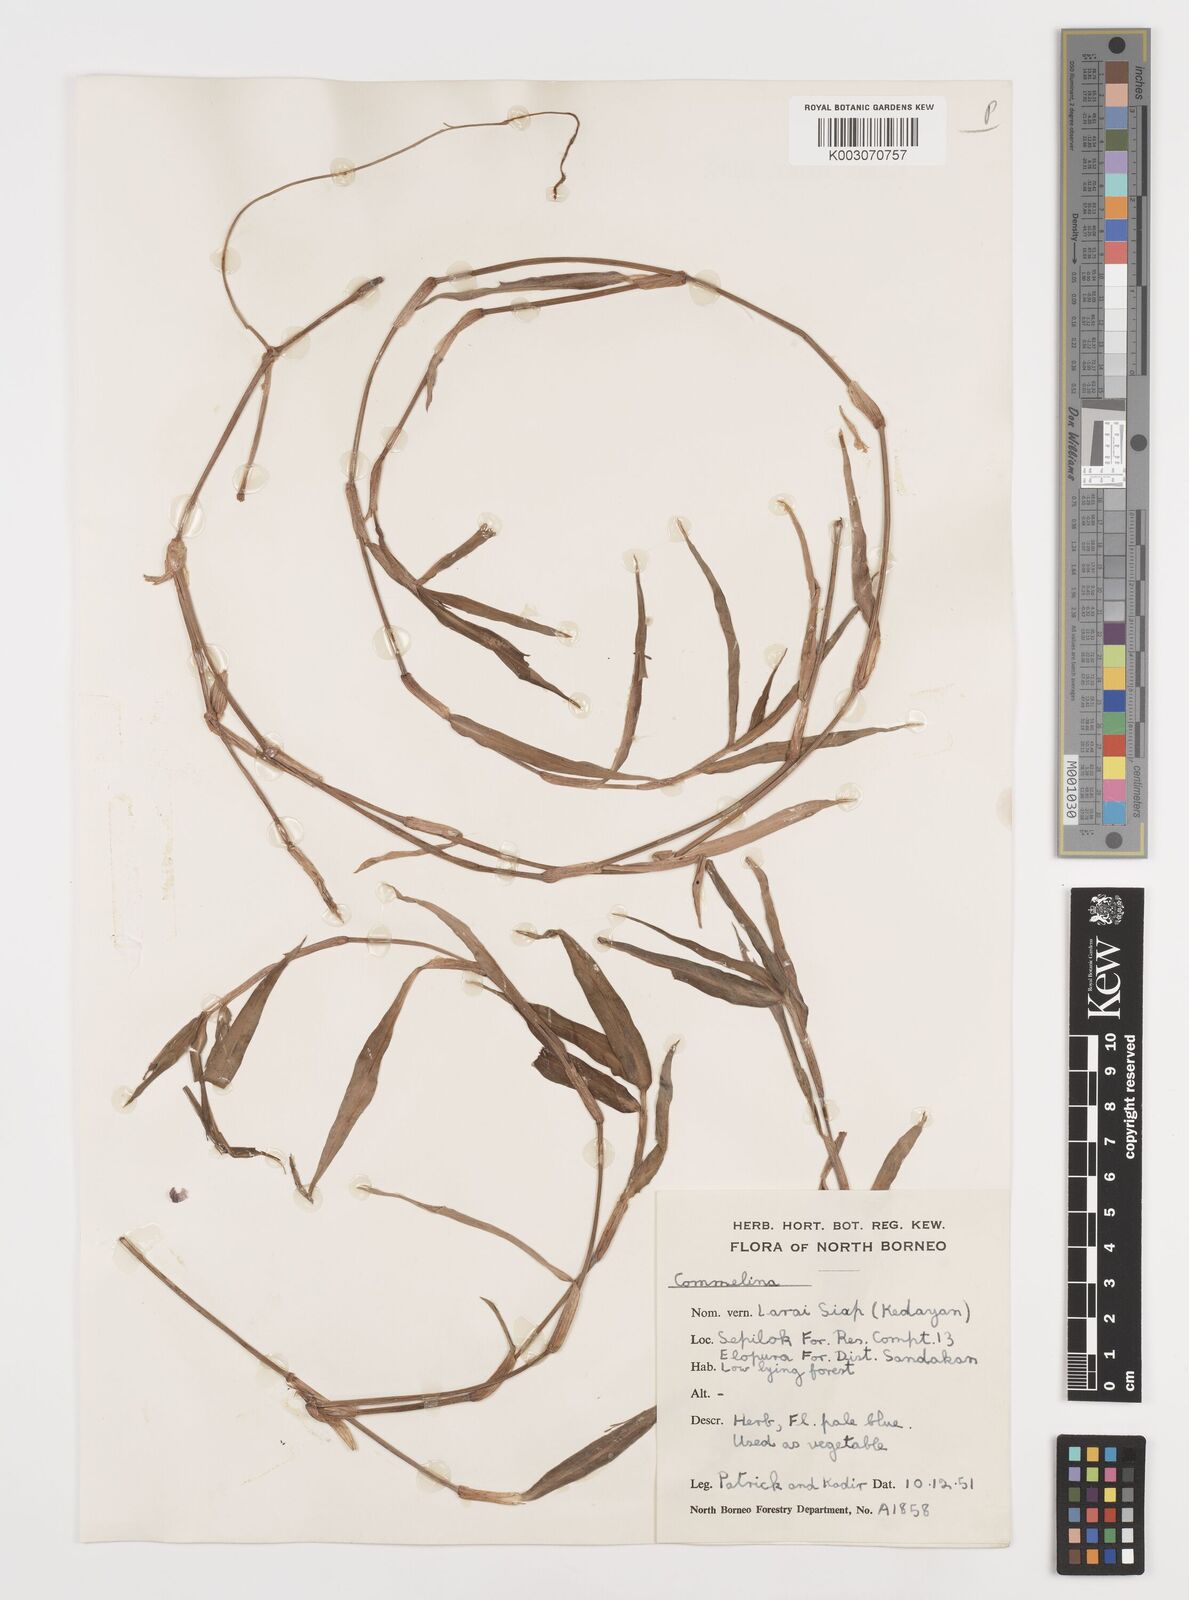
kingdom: Plantae
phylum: Tracheophyta
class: Liliopsida
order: Commelinales
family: Commelinaceae
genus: Commelina
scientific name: Commelina longifolia
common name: Longleaf dayflower
